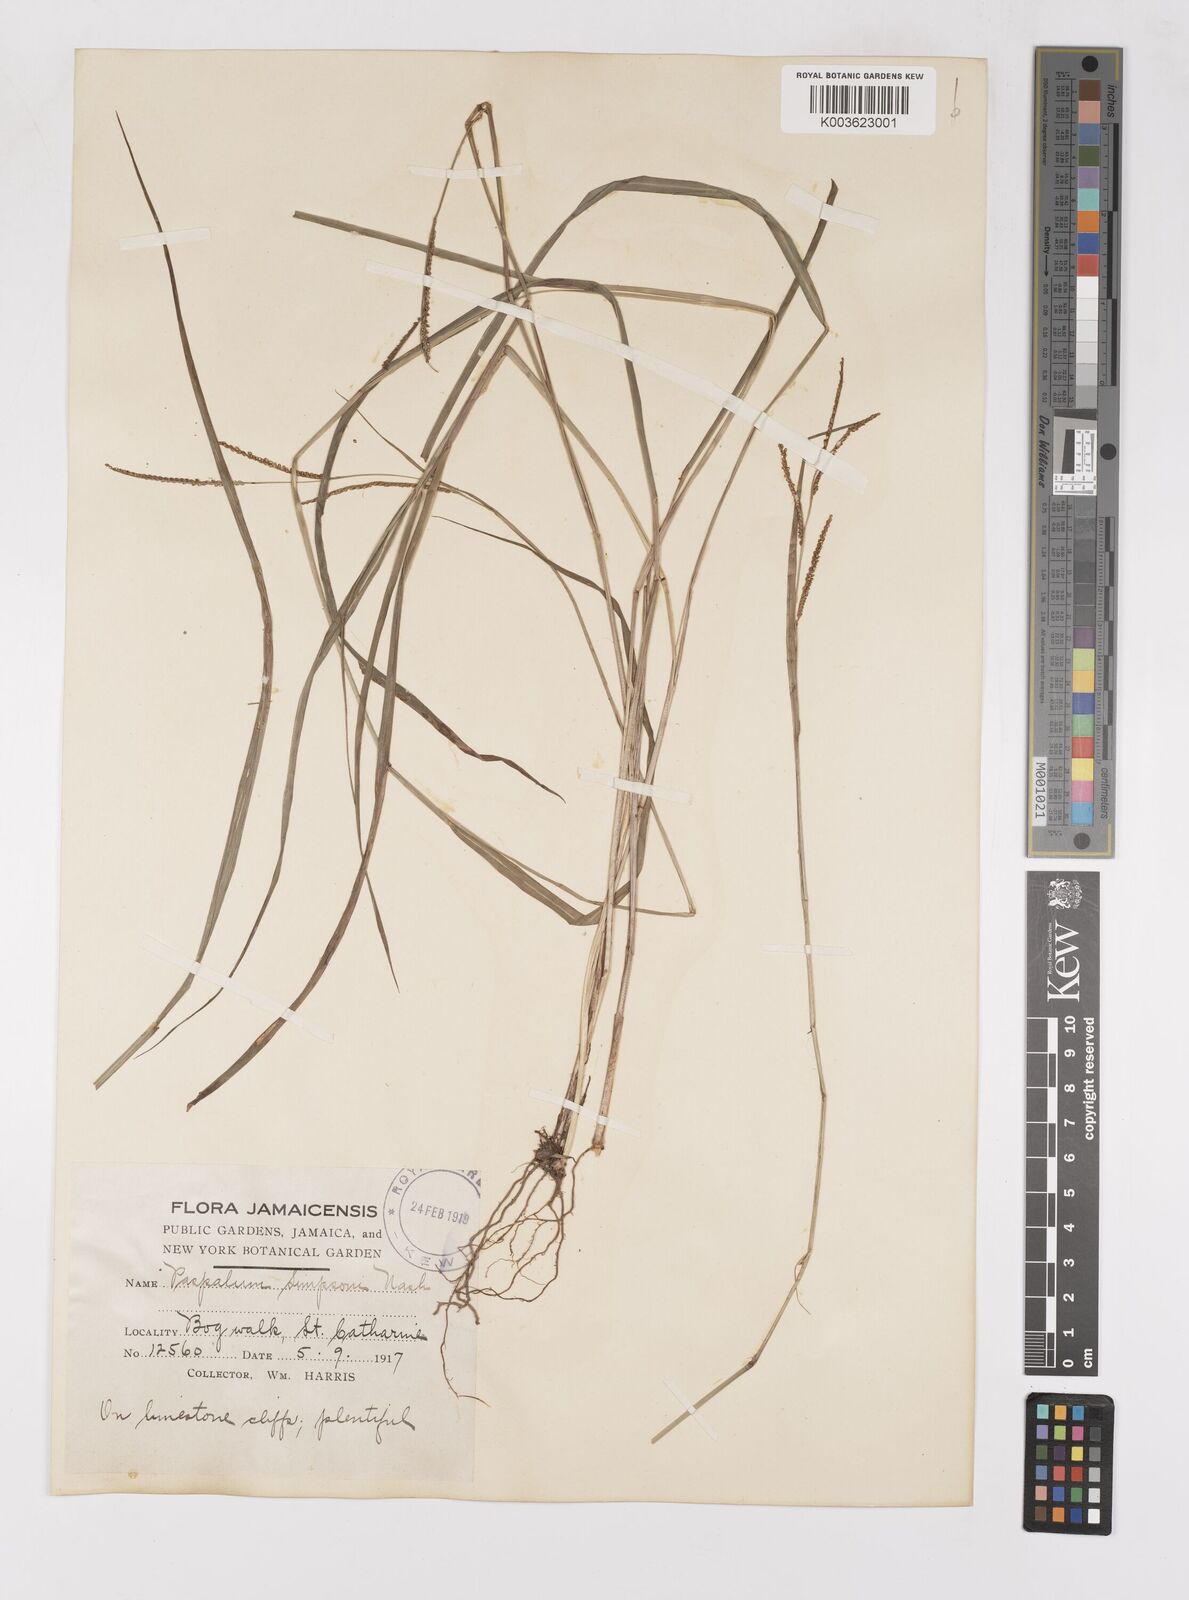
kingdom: Plantae
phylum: Tracheophyta
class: Liliopsida
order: Poales
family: Poaceae
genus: Paspalum
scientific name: Paspalum blodgettii
